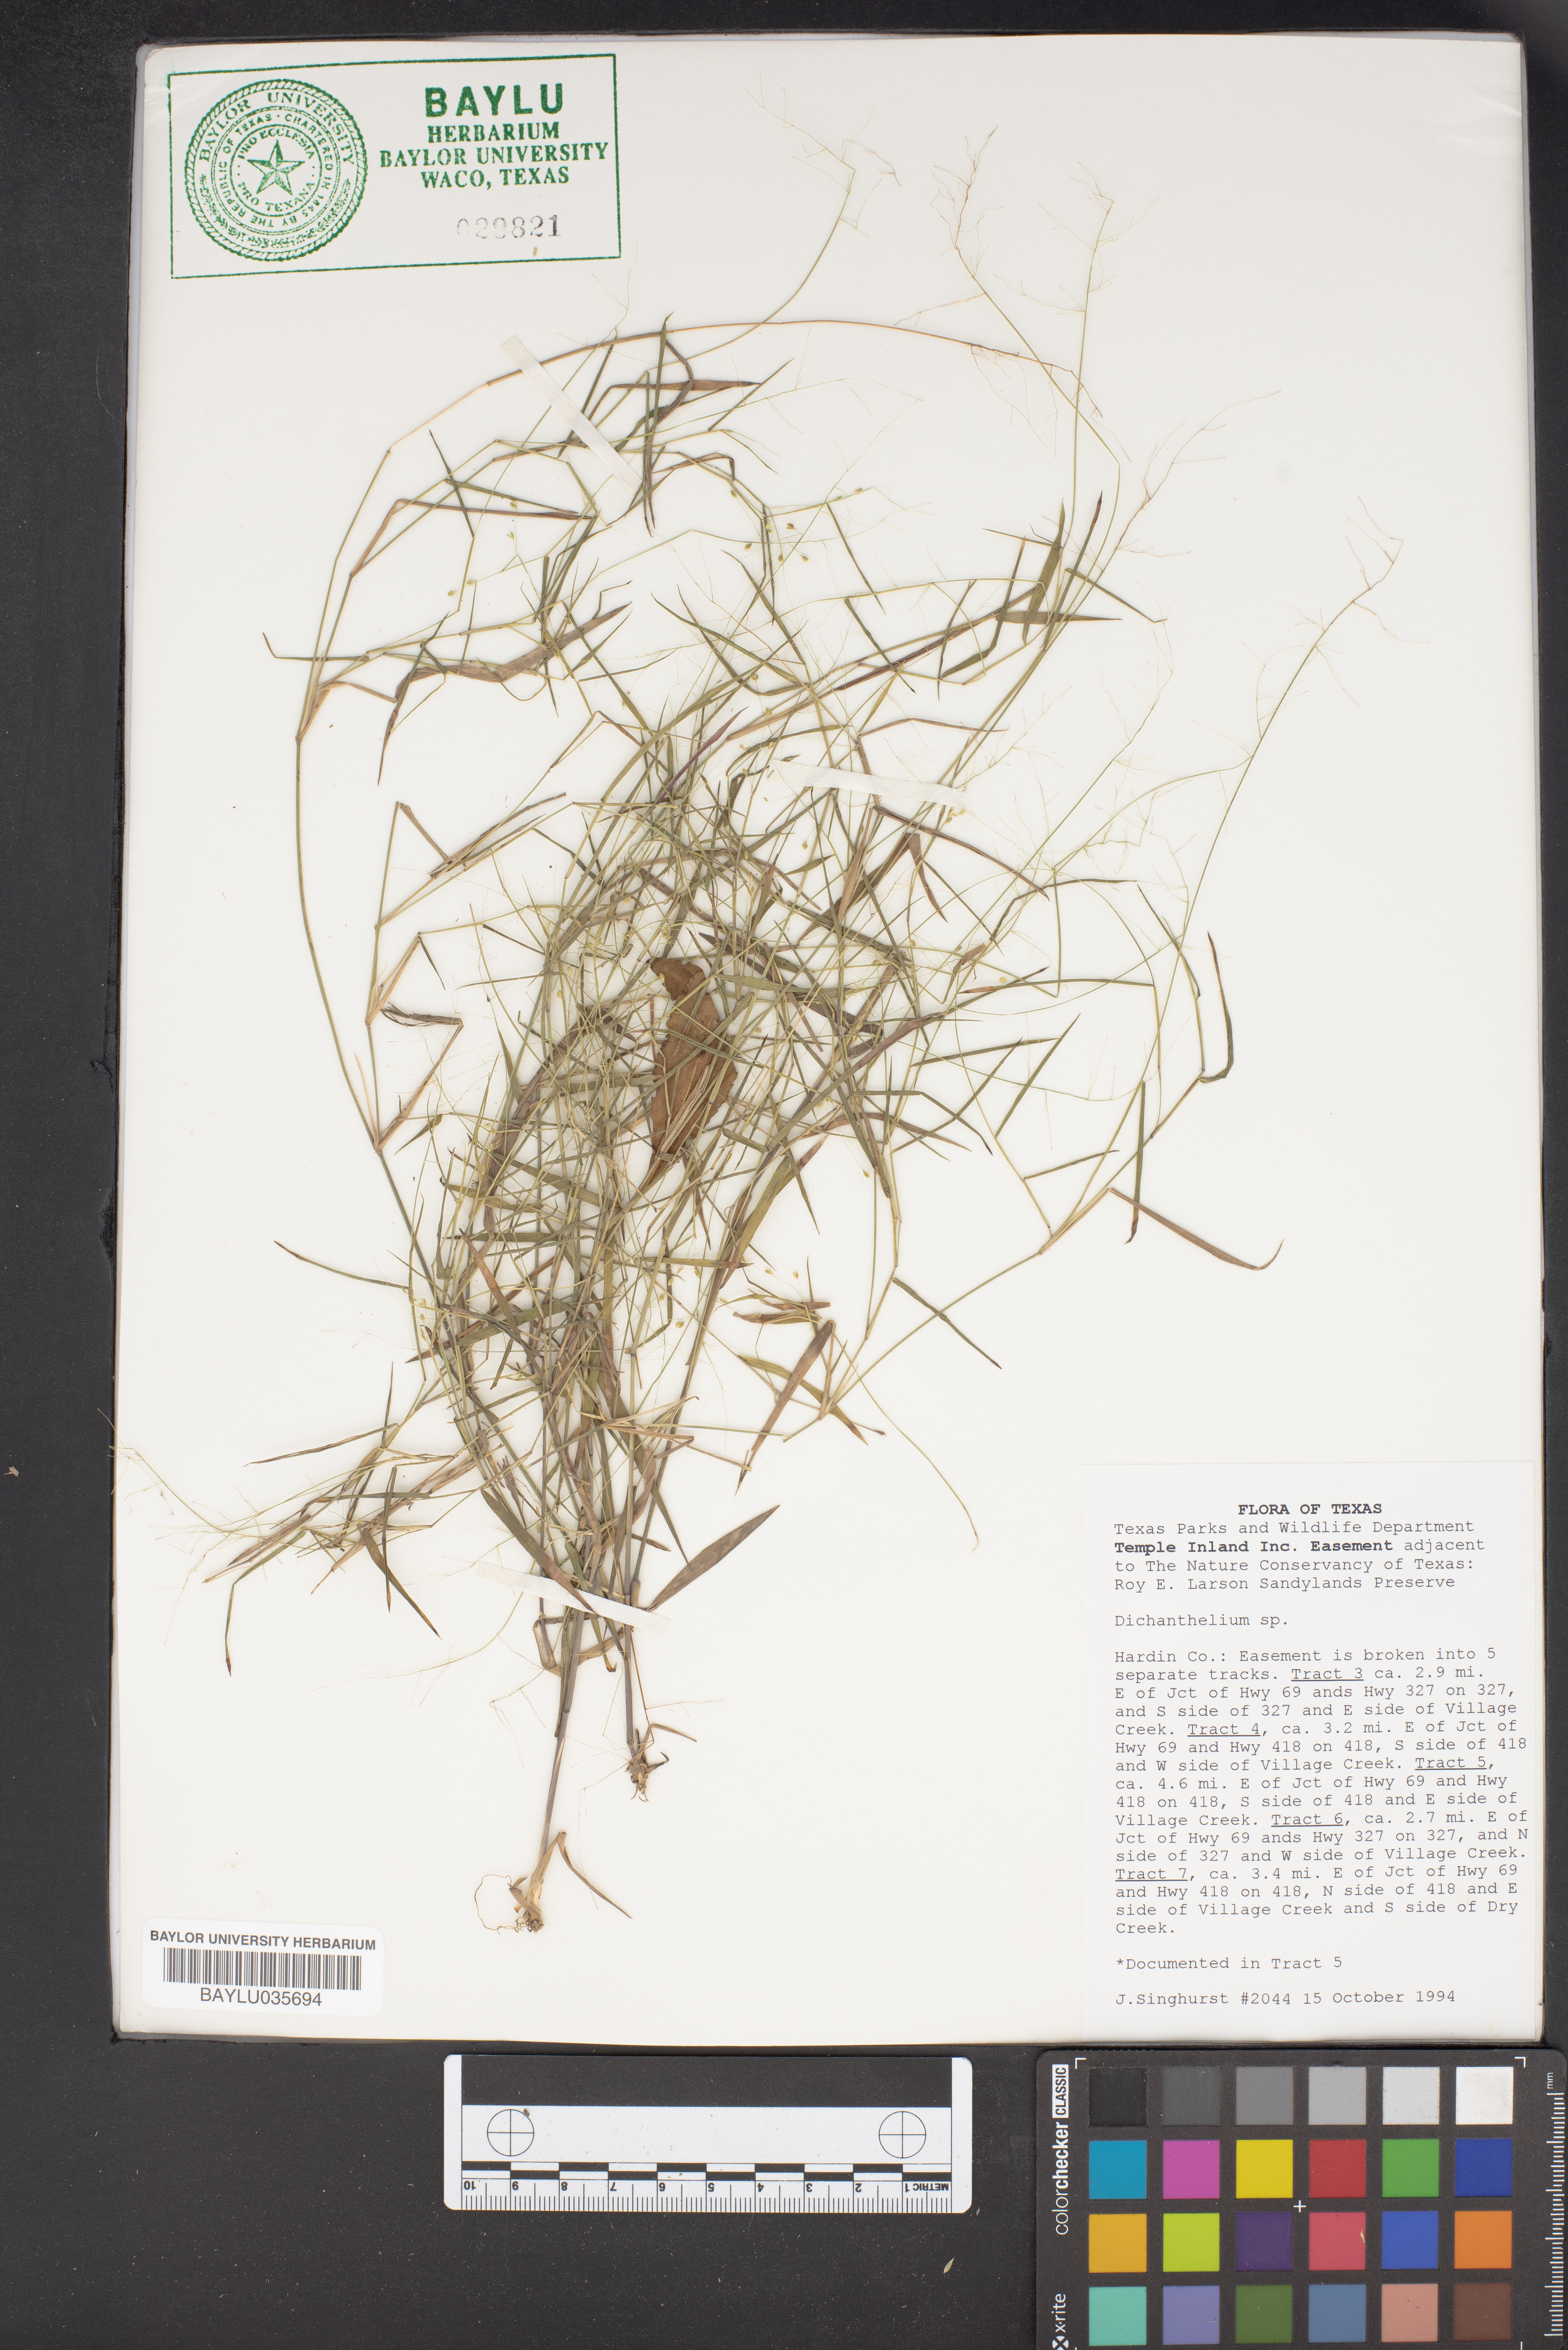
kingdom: Plantae
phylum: Tracheophyta
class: Liliopsida
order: Poales
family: Poaceae
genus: Dichanthelium
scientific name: Dichanthelium
